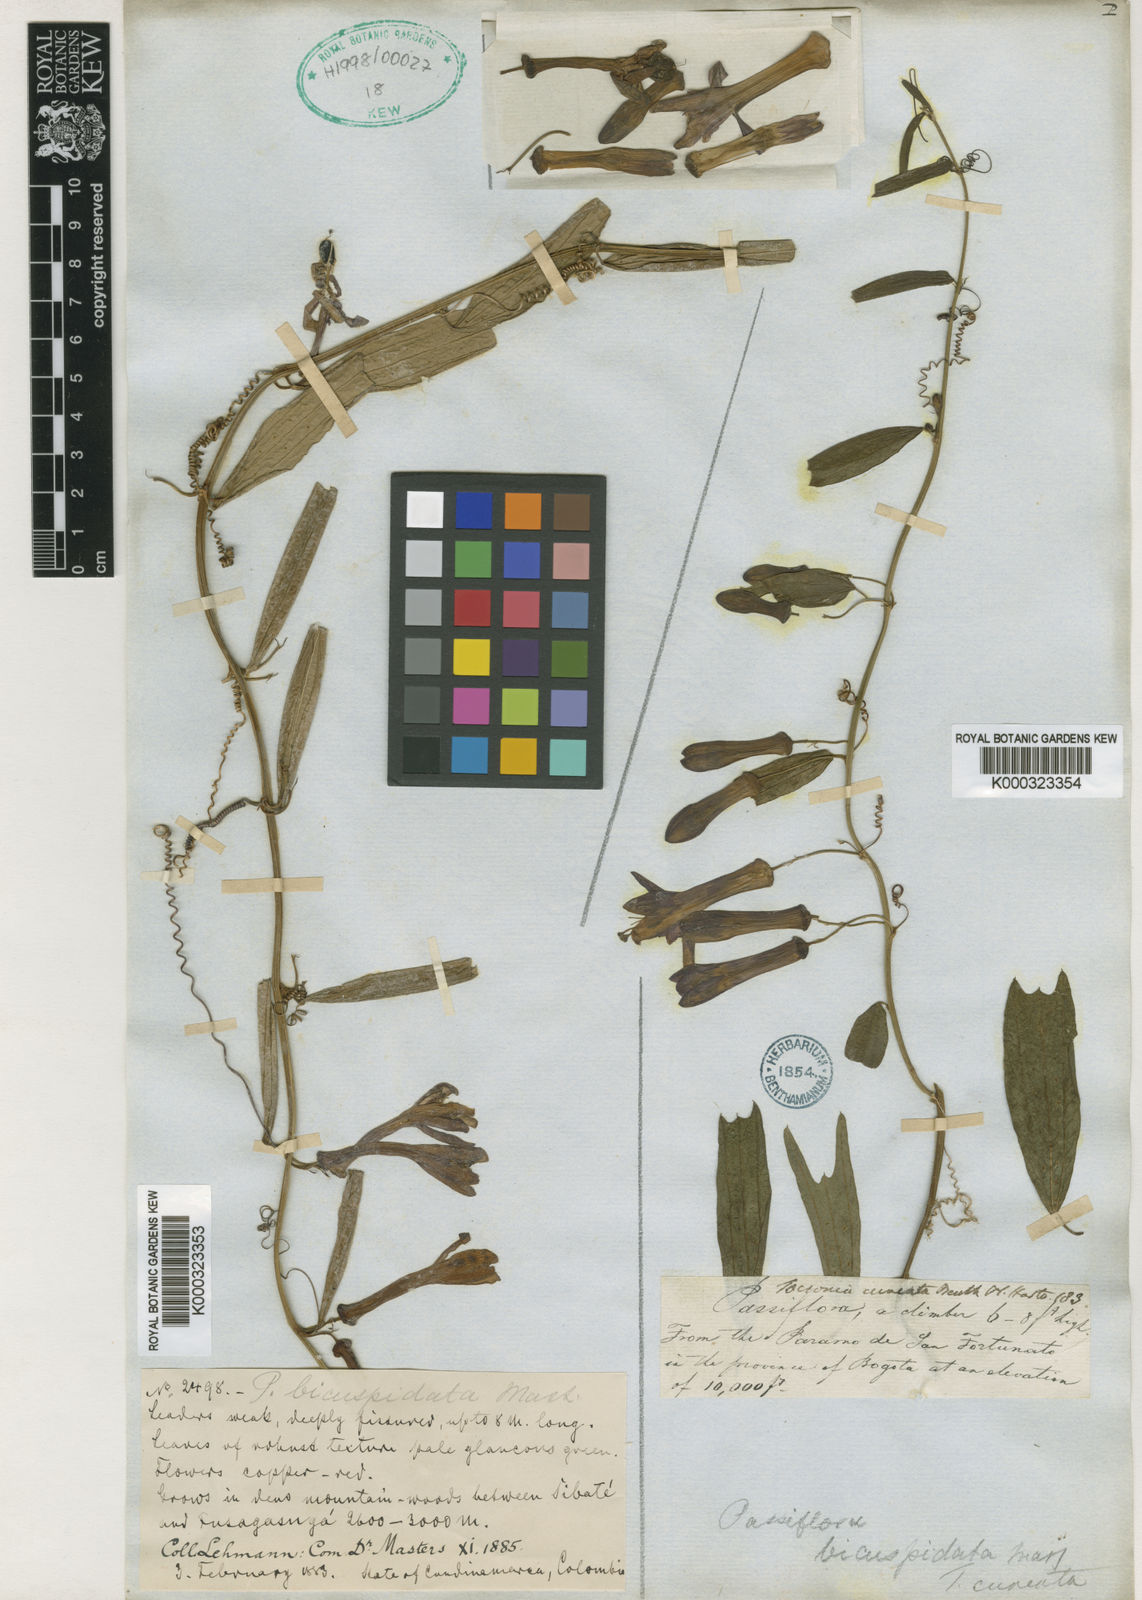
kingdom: Plantae
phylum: Tracheophyta
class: Magnoliopsida
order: Malpighiales
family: Passifloraceae
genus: Passiflora
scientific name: Passiflora bicuspidata
